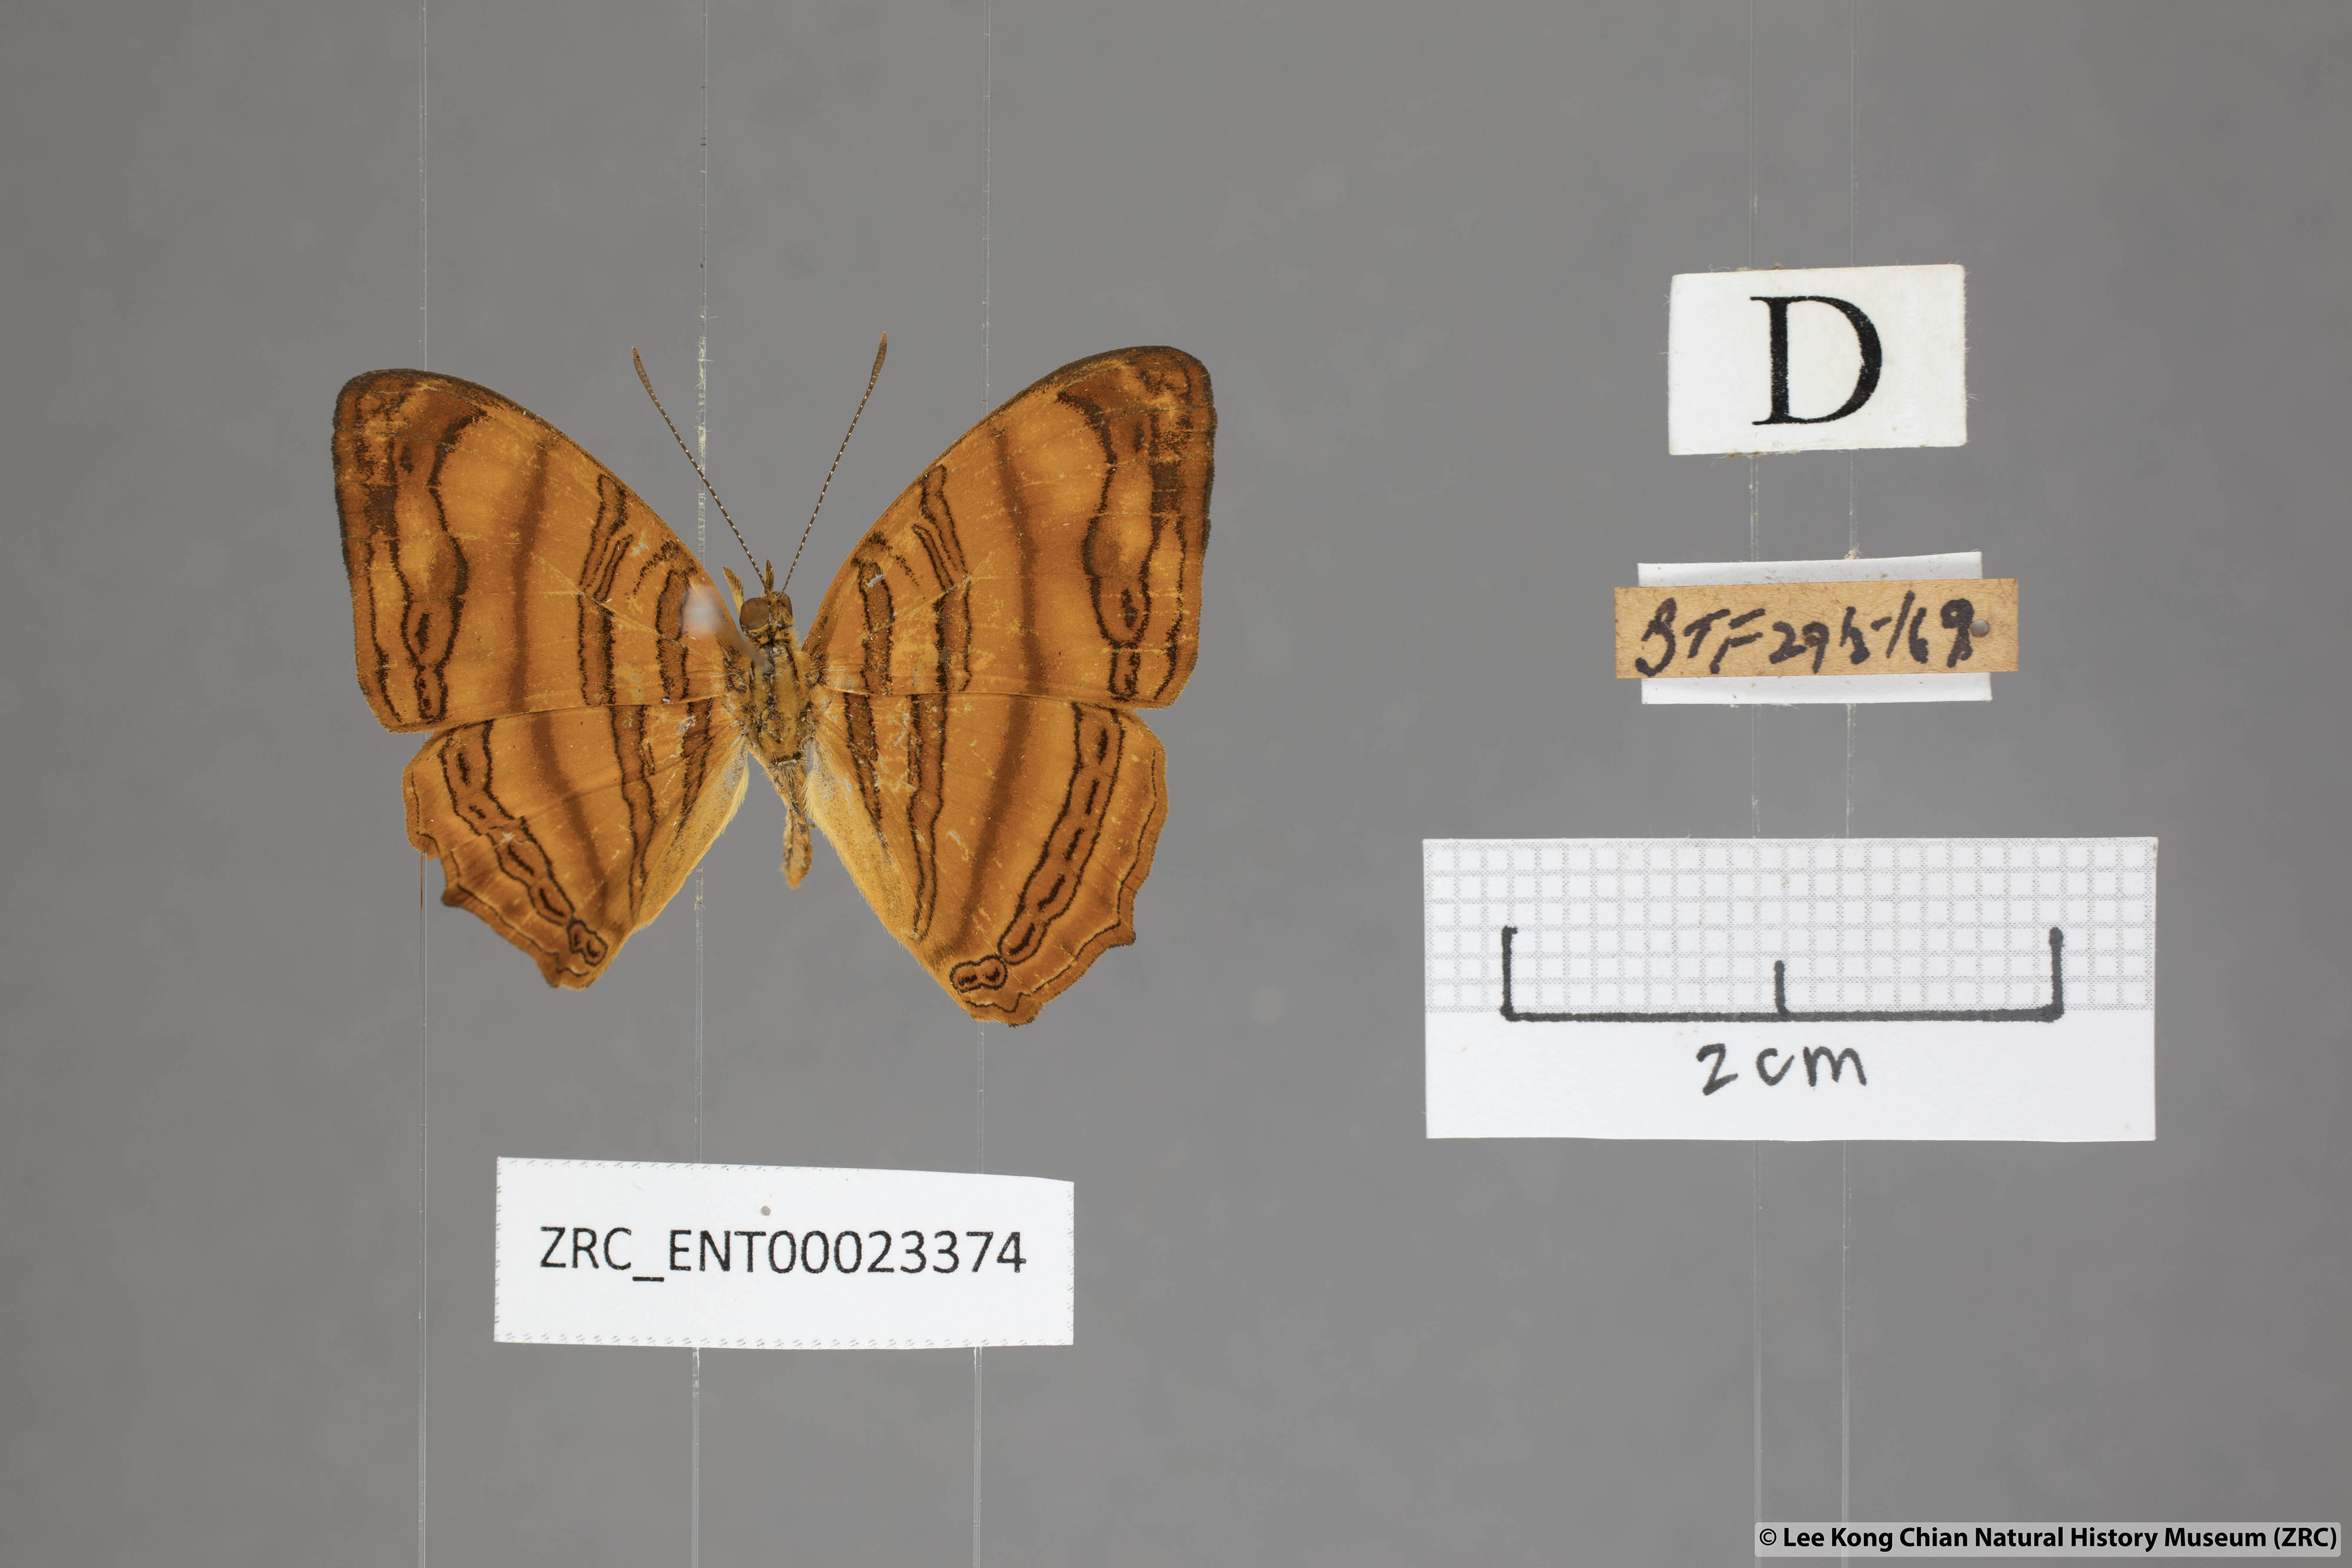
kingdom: Animalia
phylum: Arthropoda
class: Insecta
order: Lepidoptera
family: Nymphalidae
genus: Chersonesia
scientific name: Chersonesia rahria
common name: Wavy maplet
